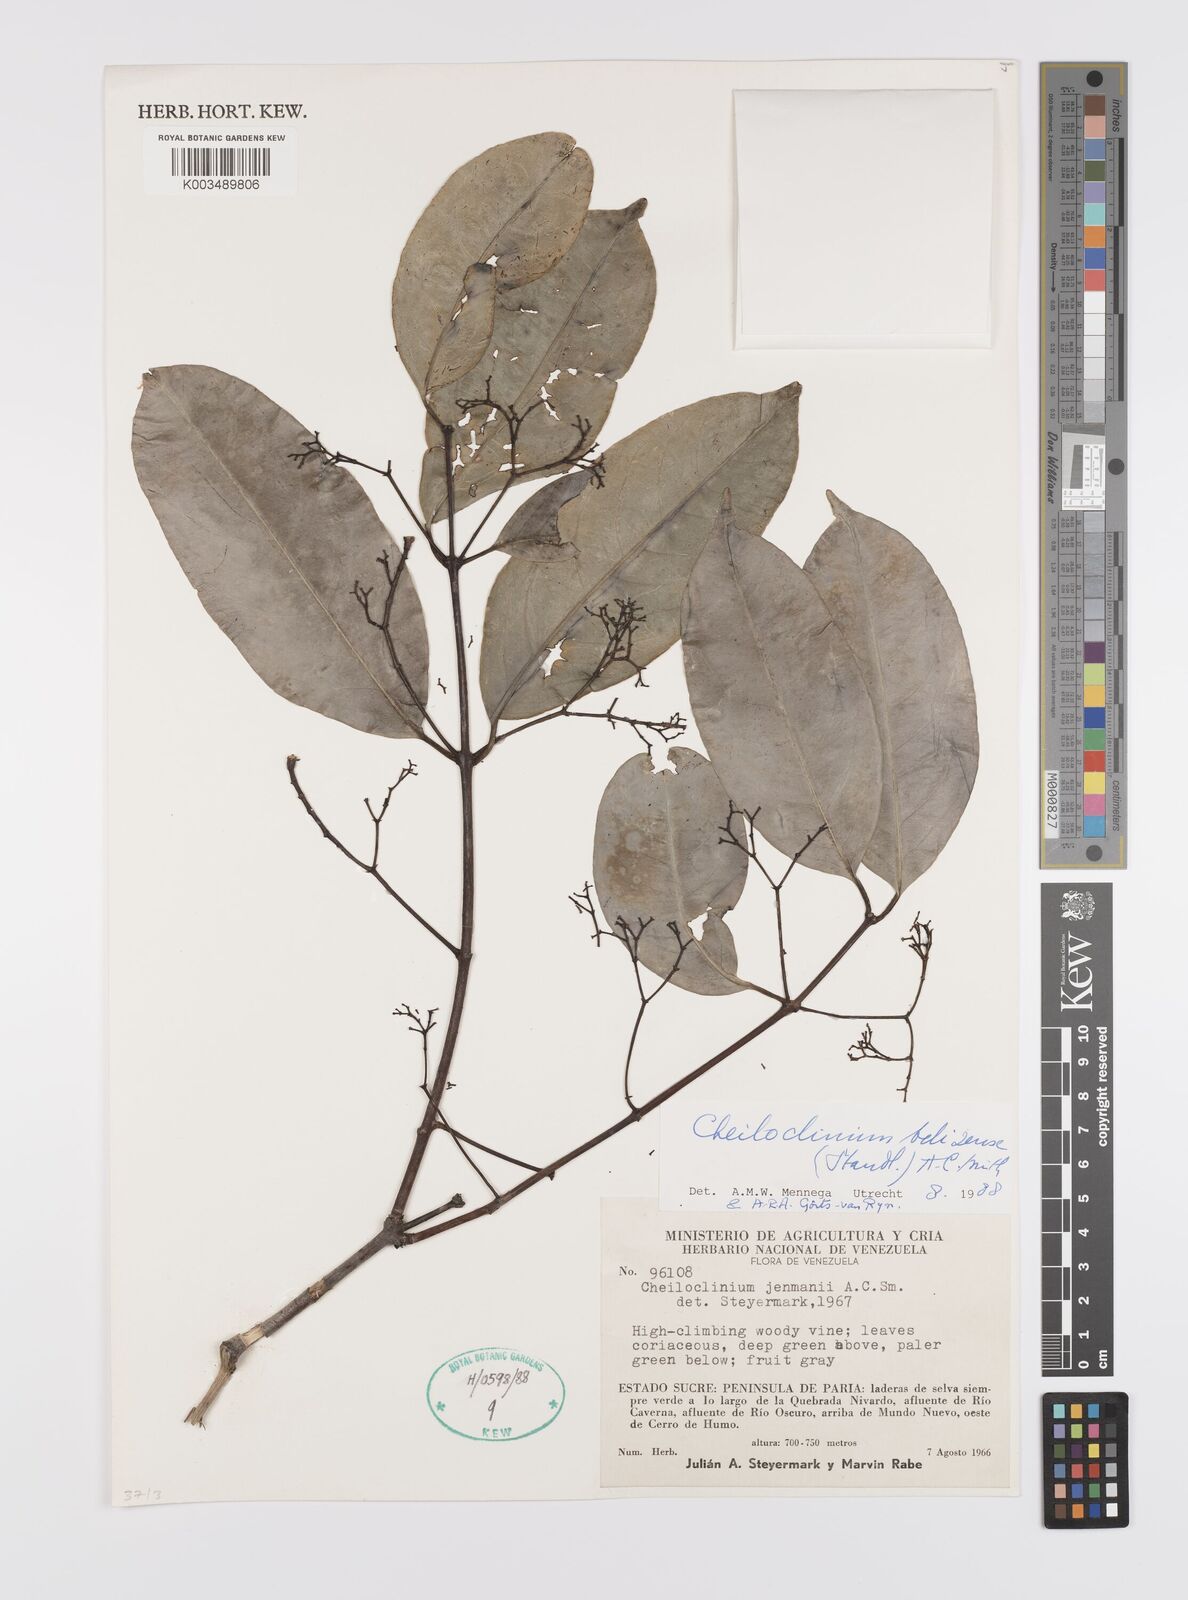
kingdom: Plantae
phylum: Tracheophyta
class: Magnoliopsida
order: Celastrales
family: Celastraceae
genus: Cheiloclinium
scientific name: Cheiloclinium belizense
